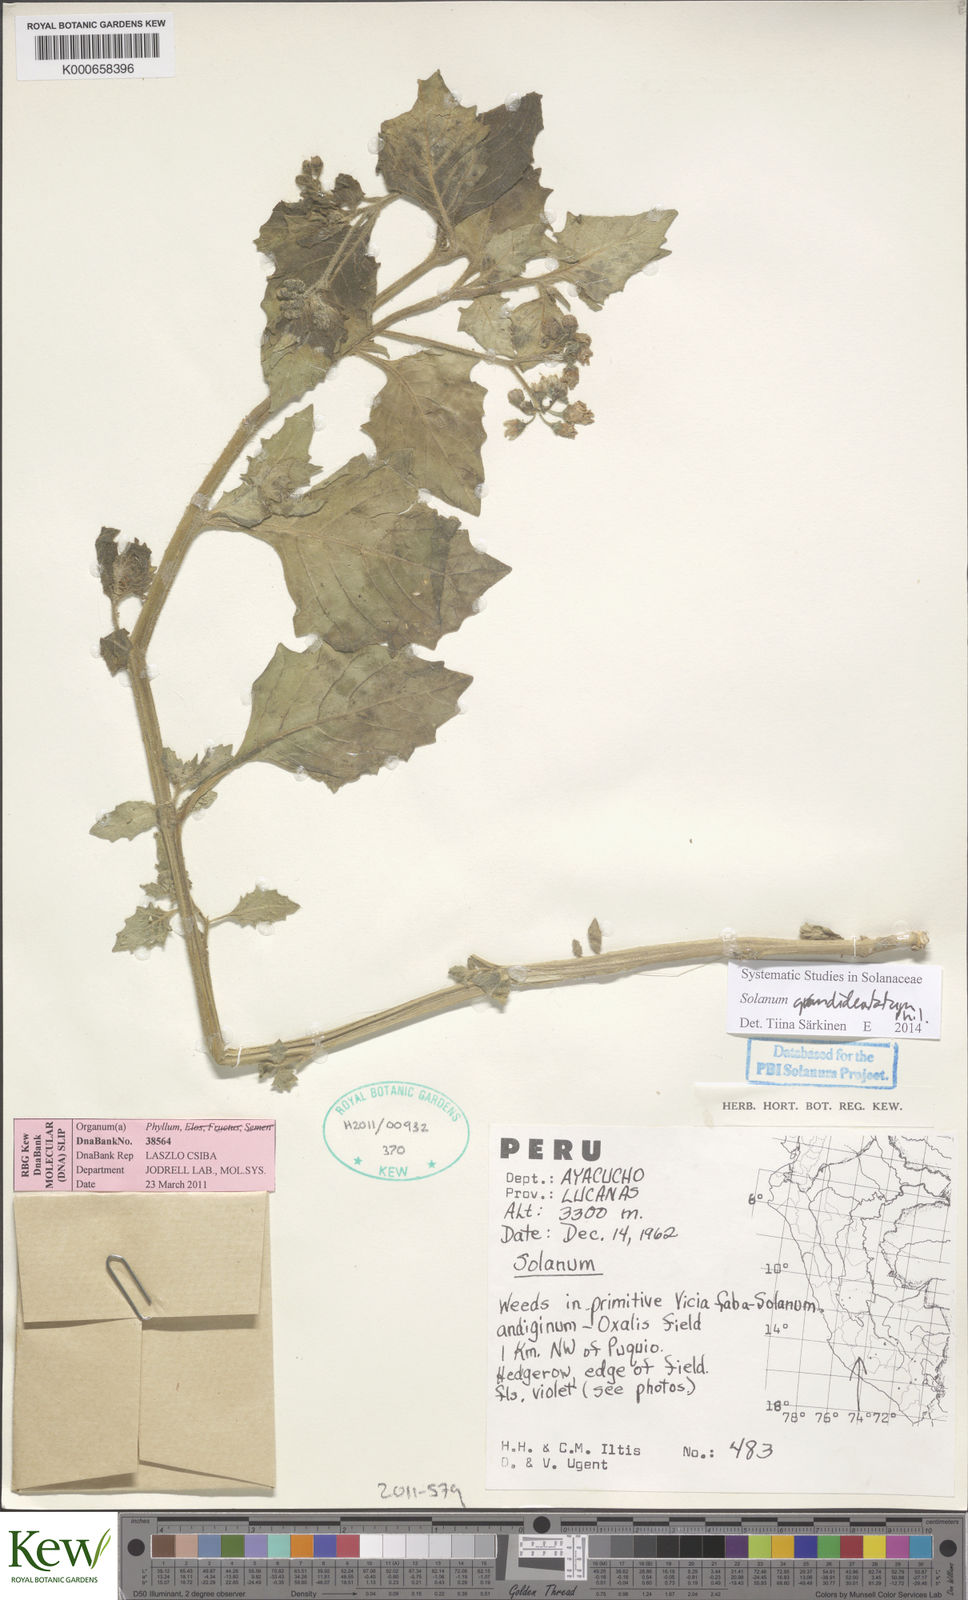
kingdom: Plantae
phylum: Tracheophyta
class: Magnoliopsida
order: Solanales
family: Solanaceae
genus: Solanum
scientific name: Solanum grandidentatum
